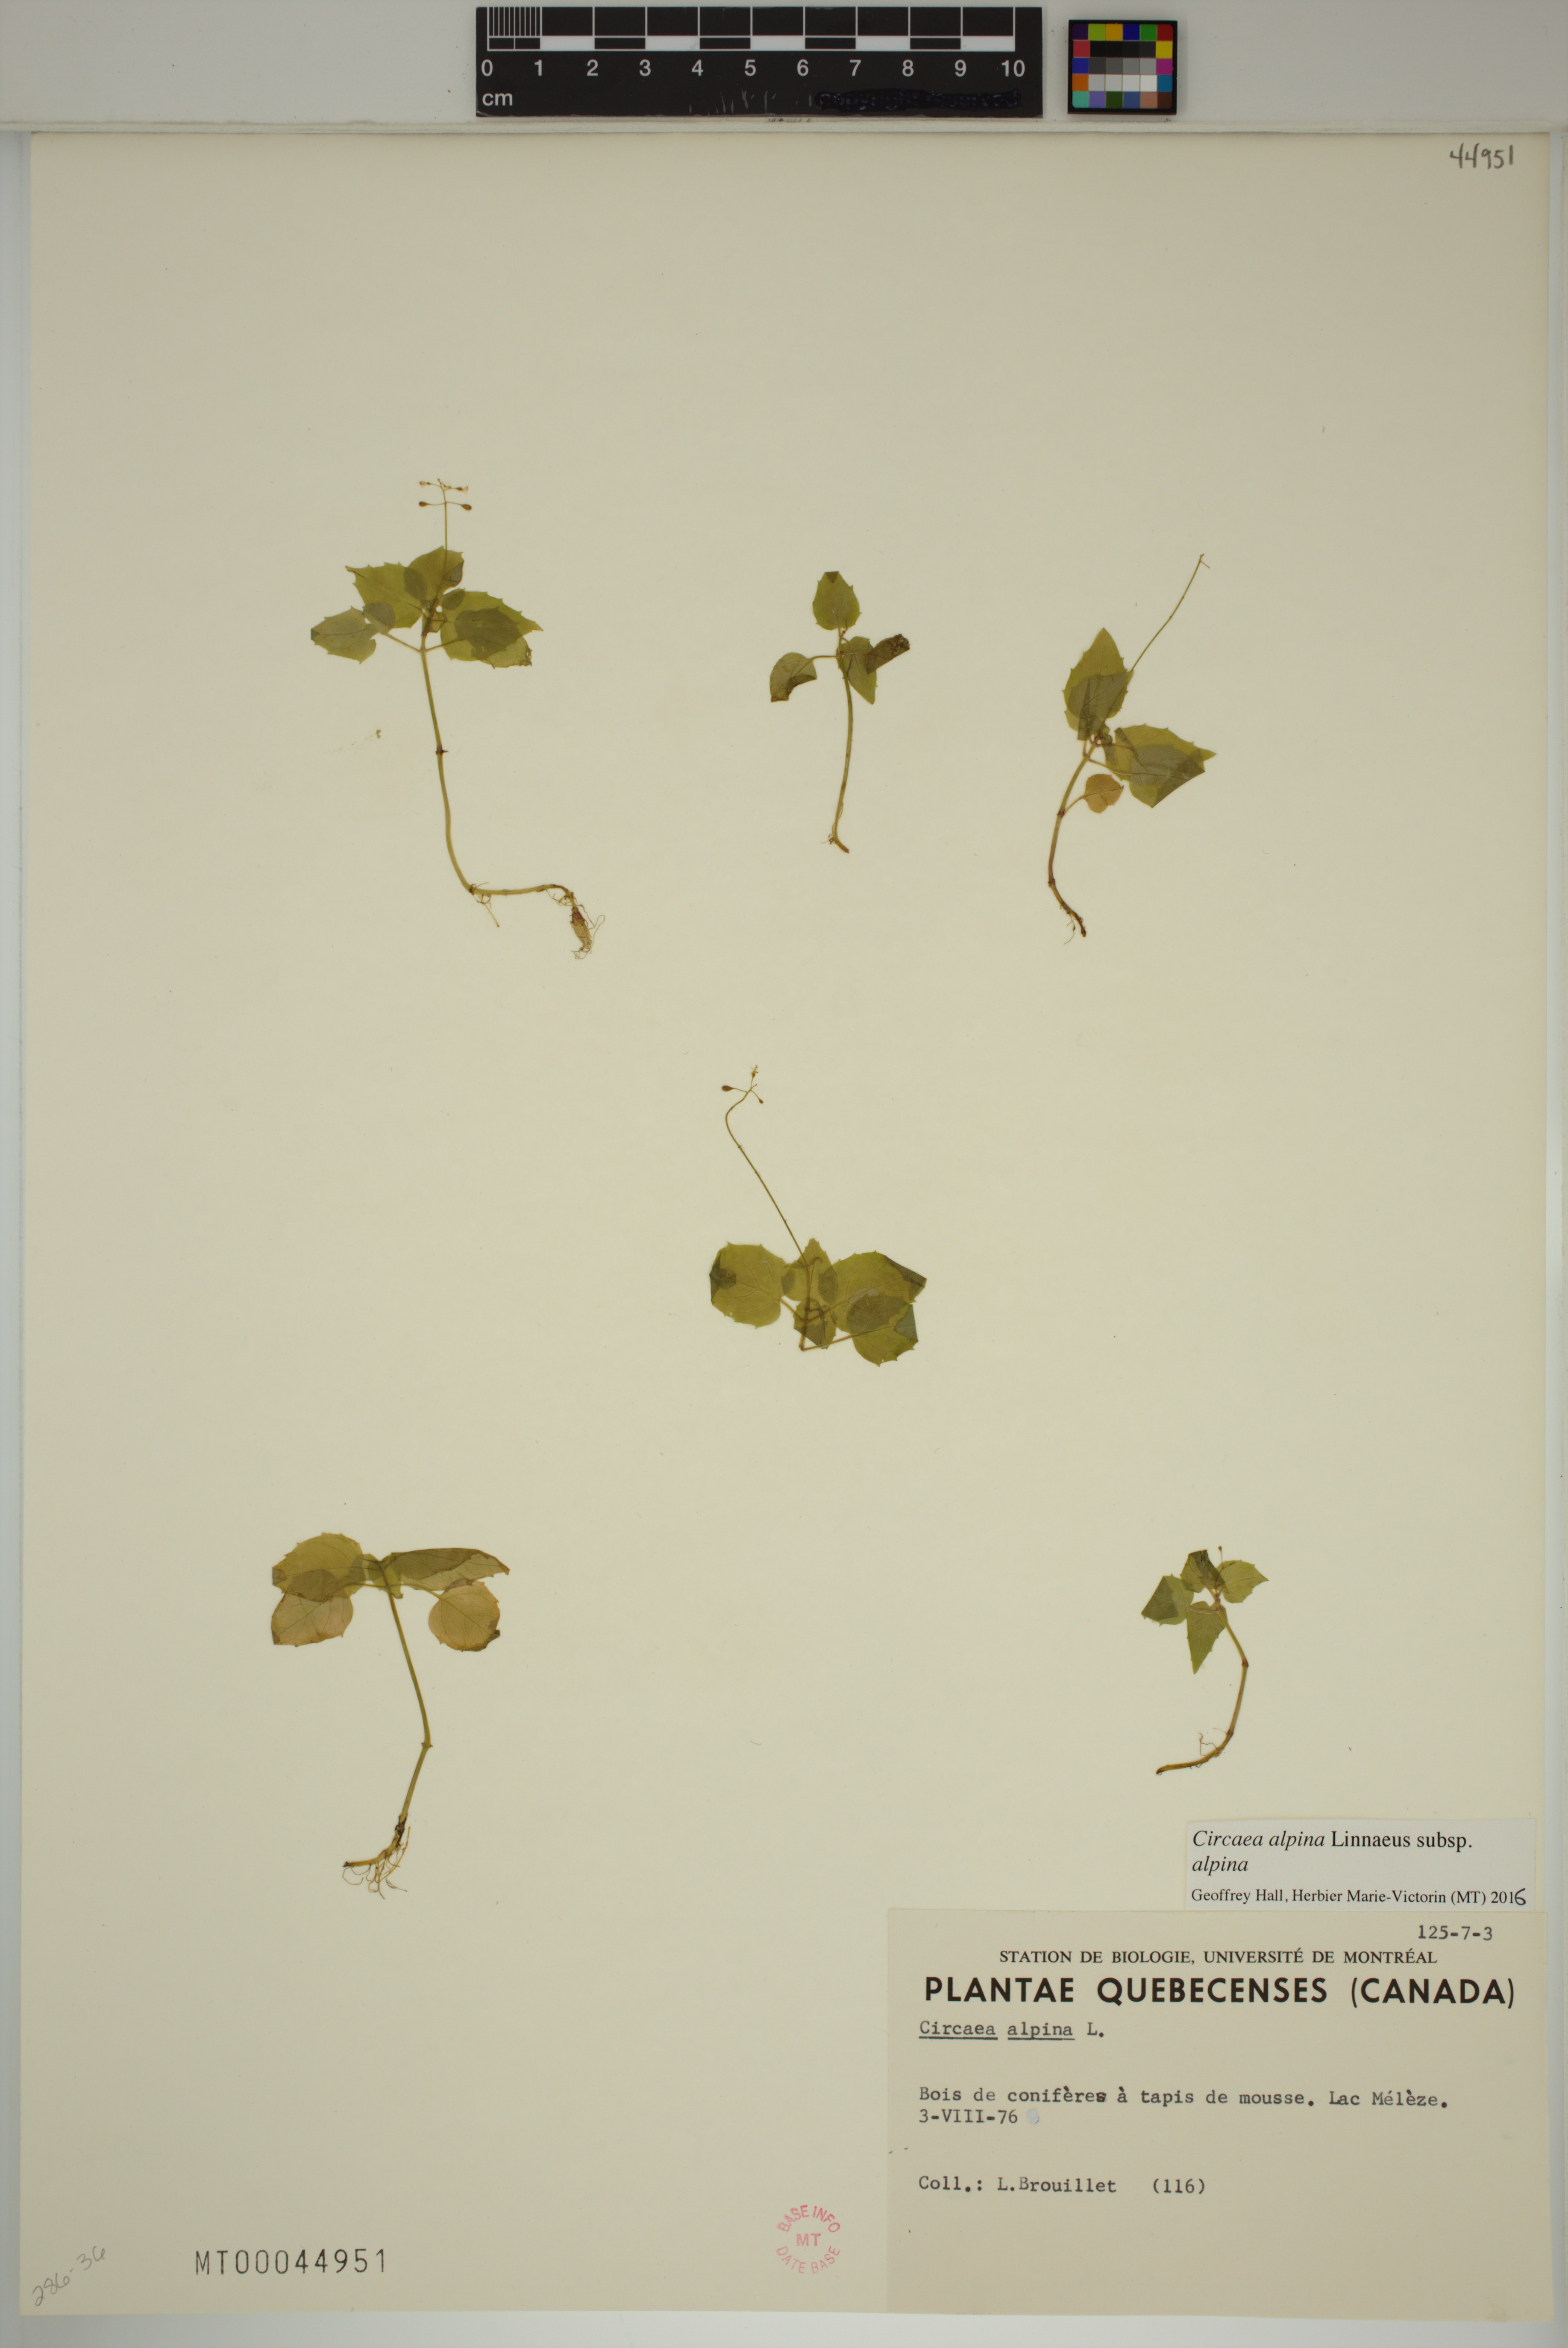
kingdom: Plantae
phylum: Tracheophyta
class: Magnoliopsida
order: Myrtales
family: Onagraceae
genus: Circaea
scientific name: Circaea alpina
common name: Alpine enchanter's-nightshade
